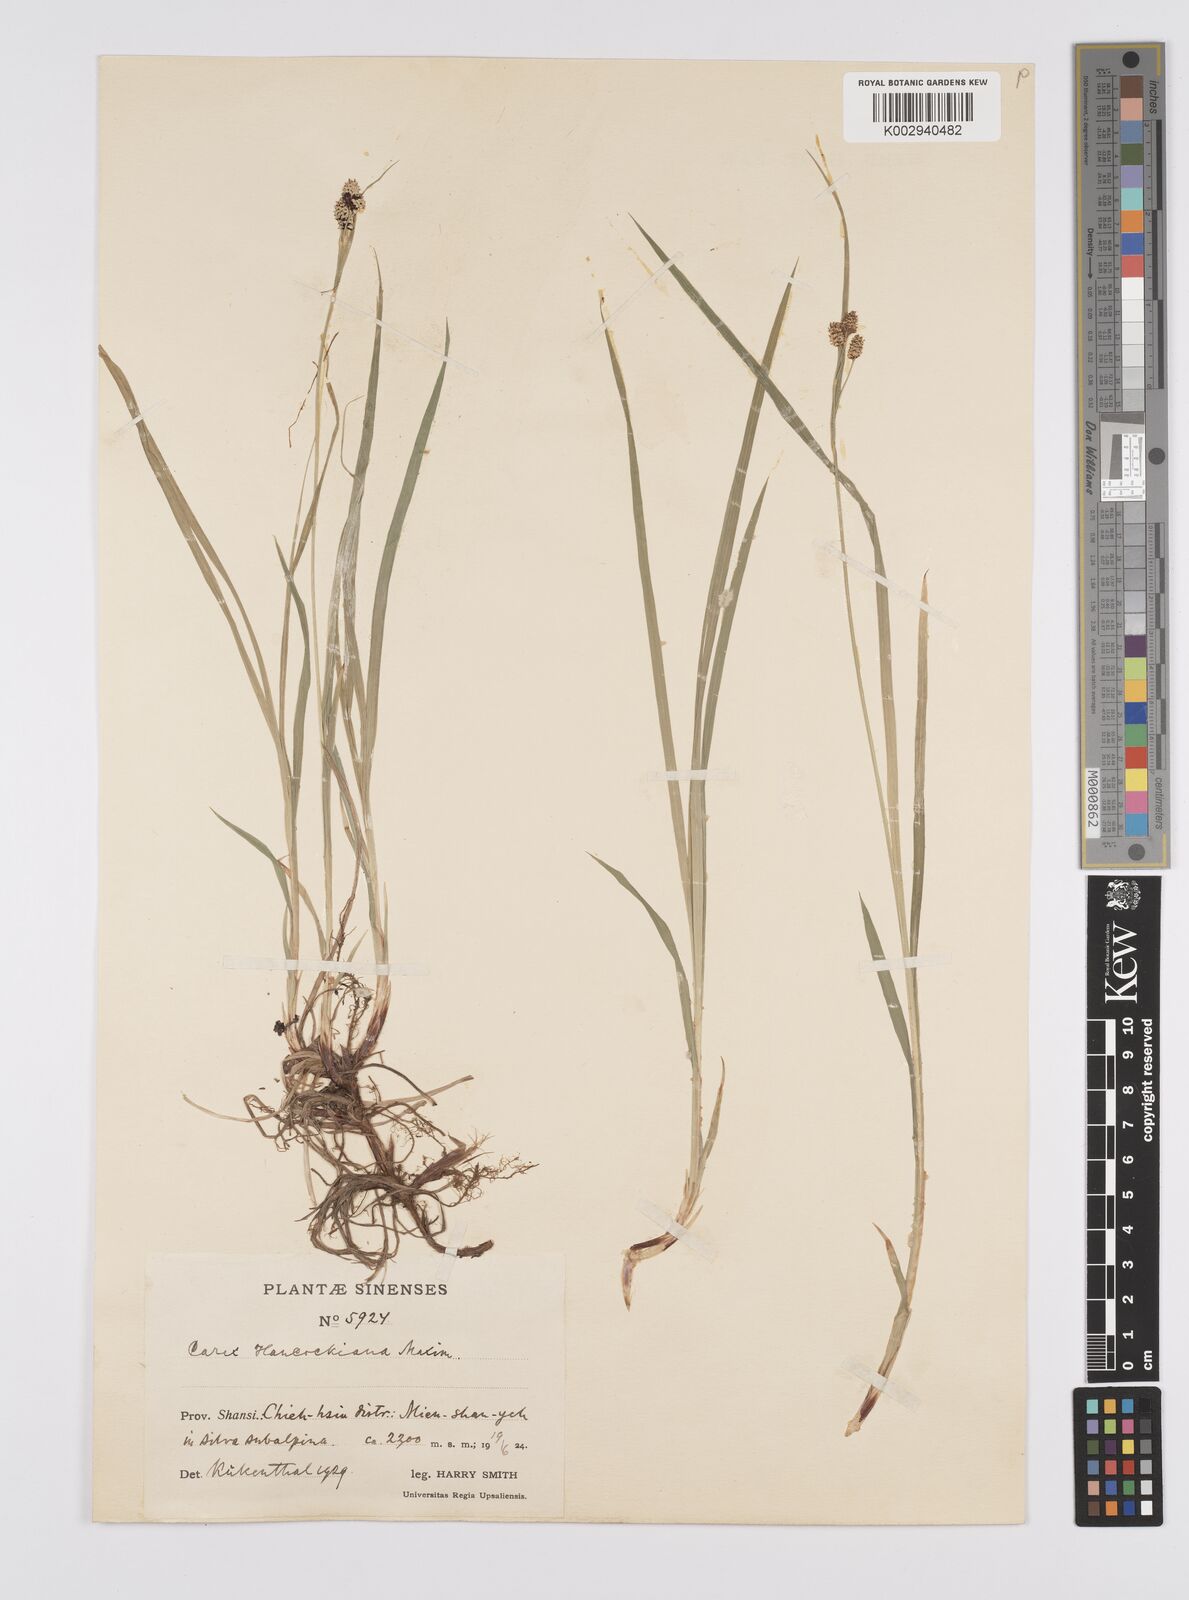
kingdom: Plantae
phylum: Tracheophyta
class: Liliopsida
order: Poales
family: Cyperaceae
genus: Carex
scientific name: Carex hancockiana
